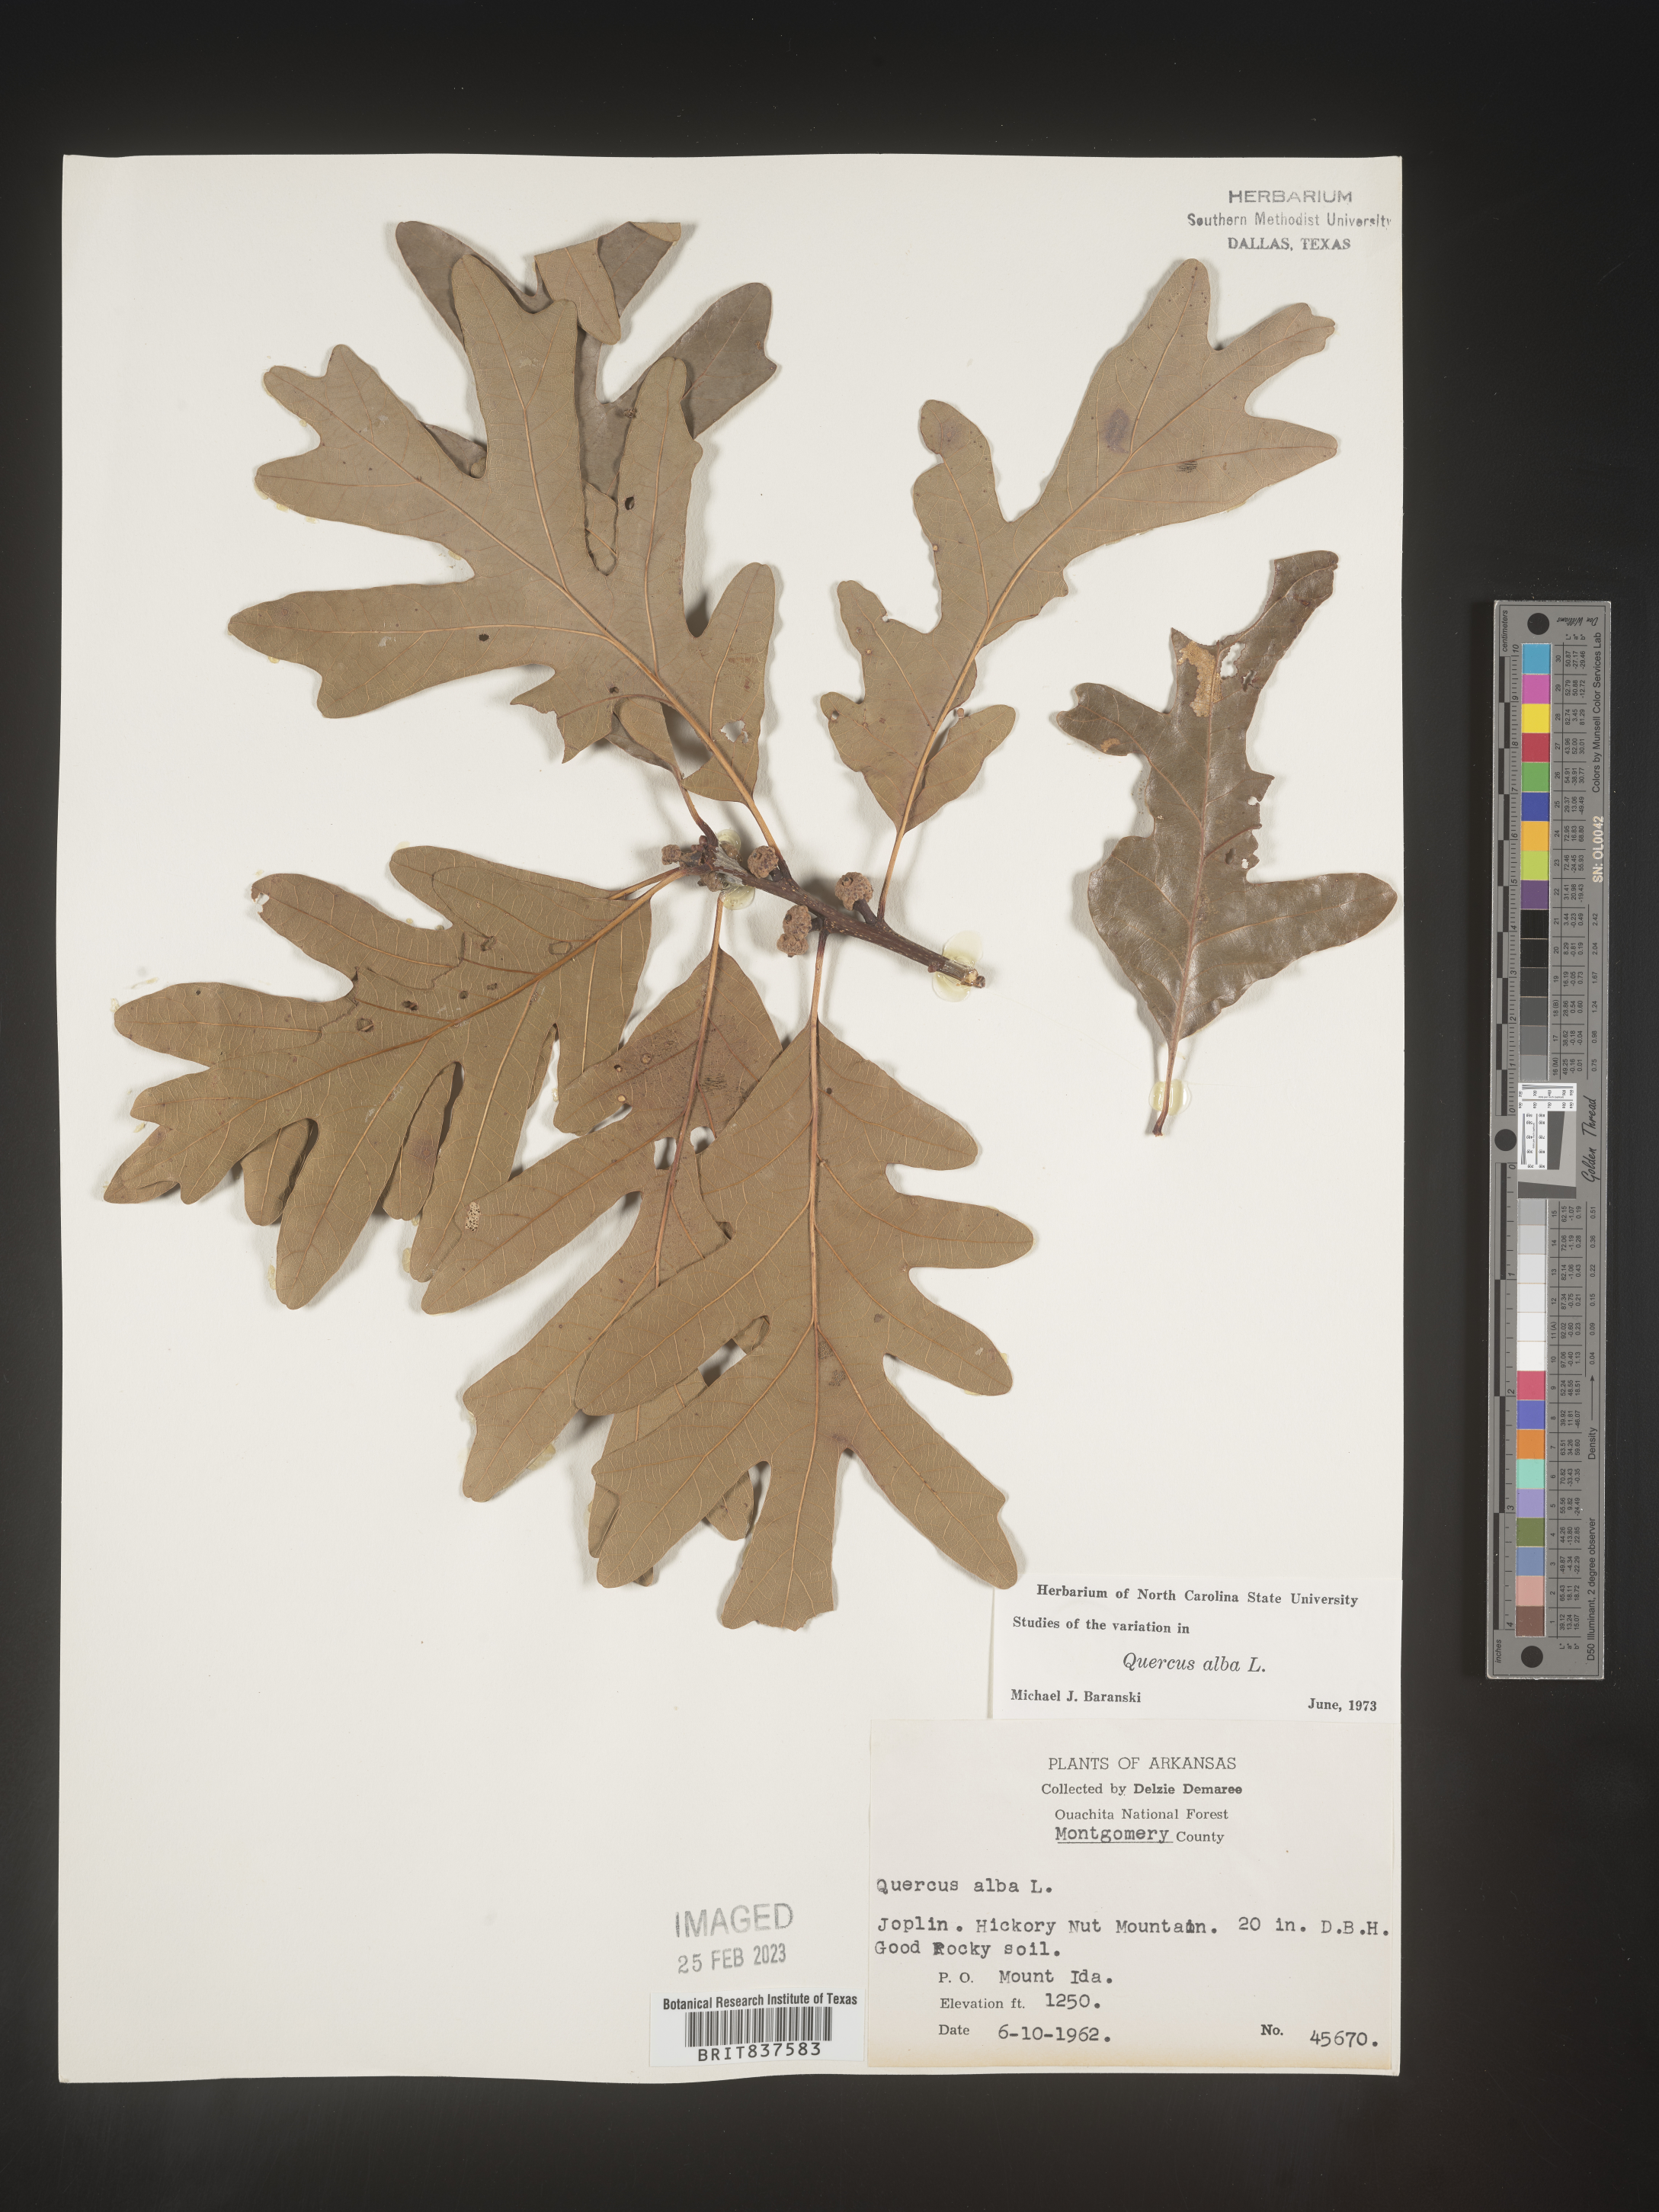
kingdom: Plantae
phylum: Tracheophyta
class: Magnoliopsida
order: Fagales
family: Fagaceae
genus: Quercus
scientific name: Quercus alba
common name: White oak
